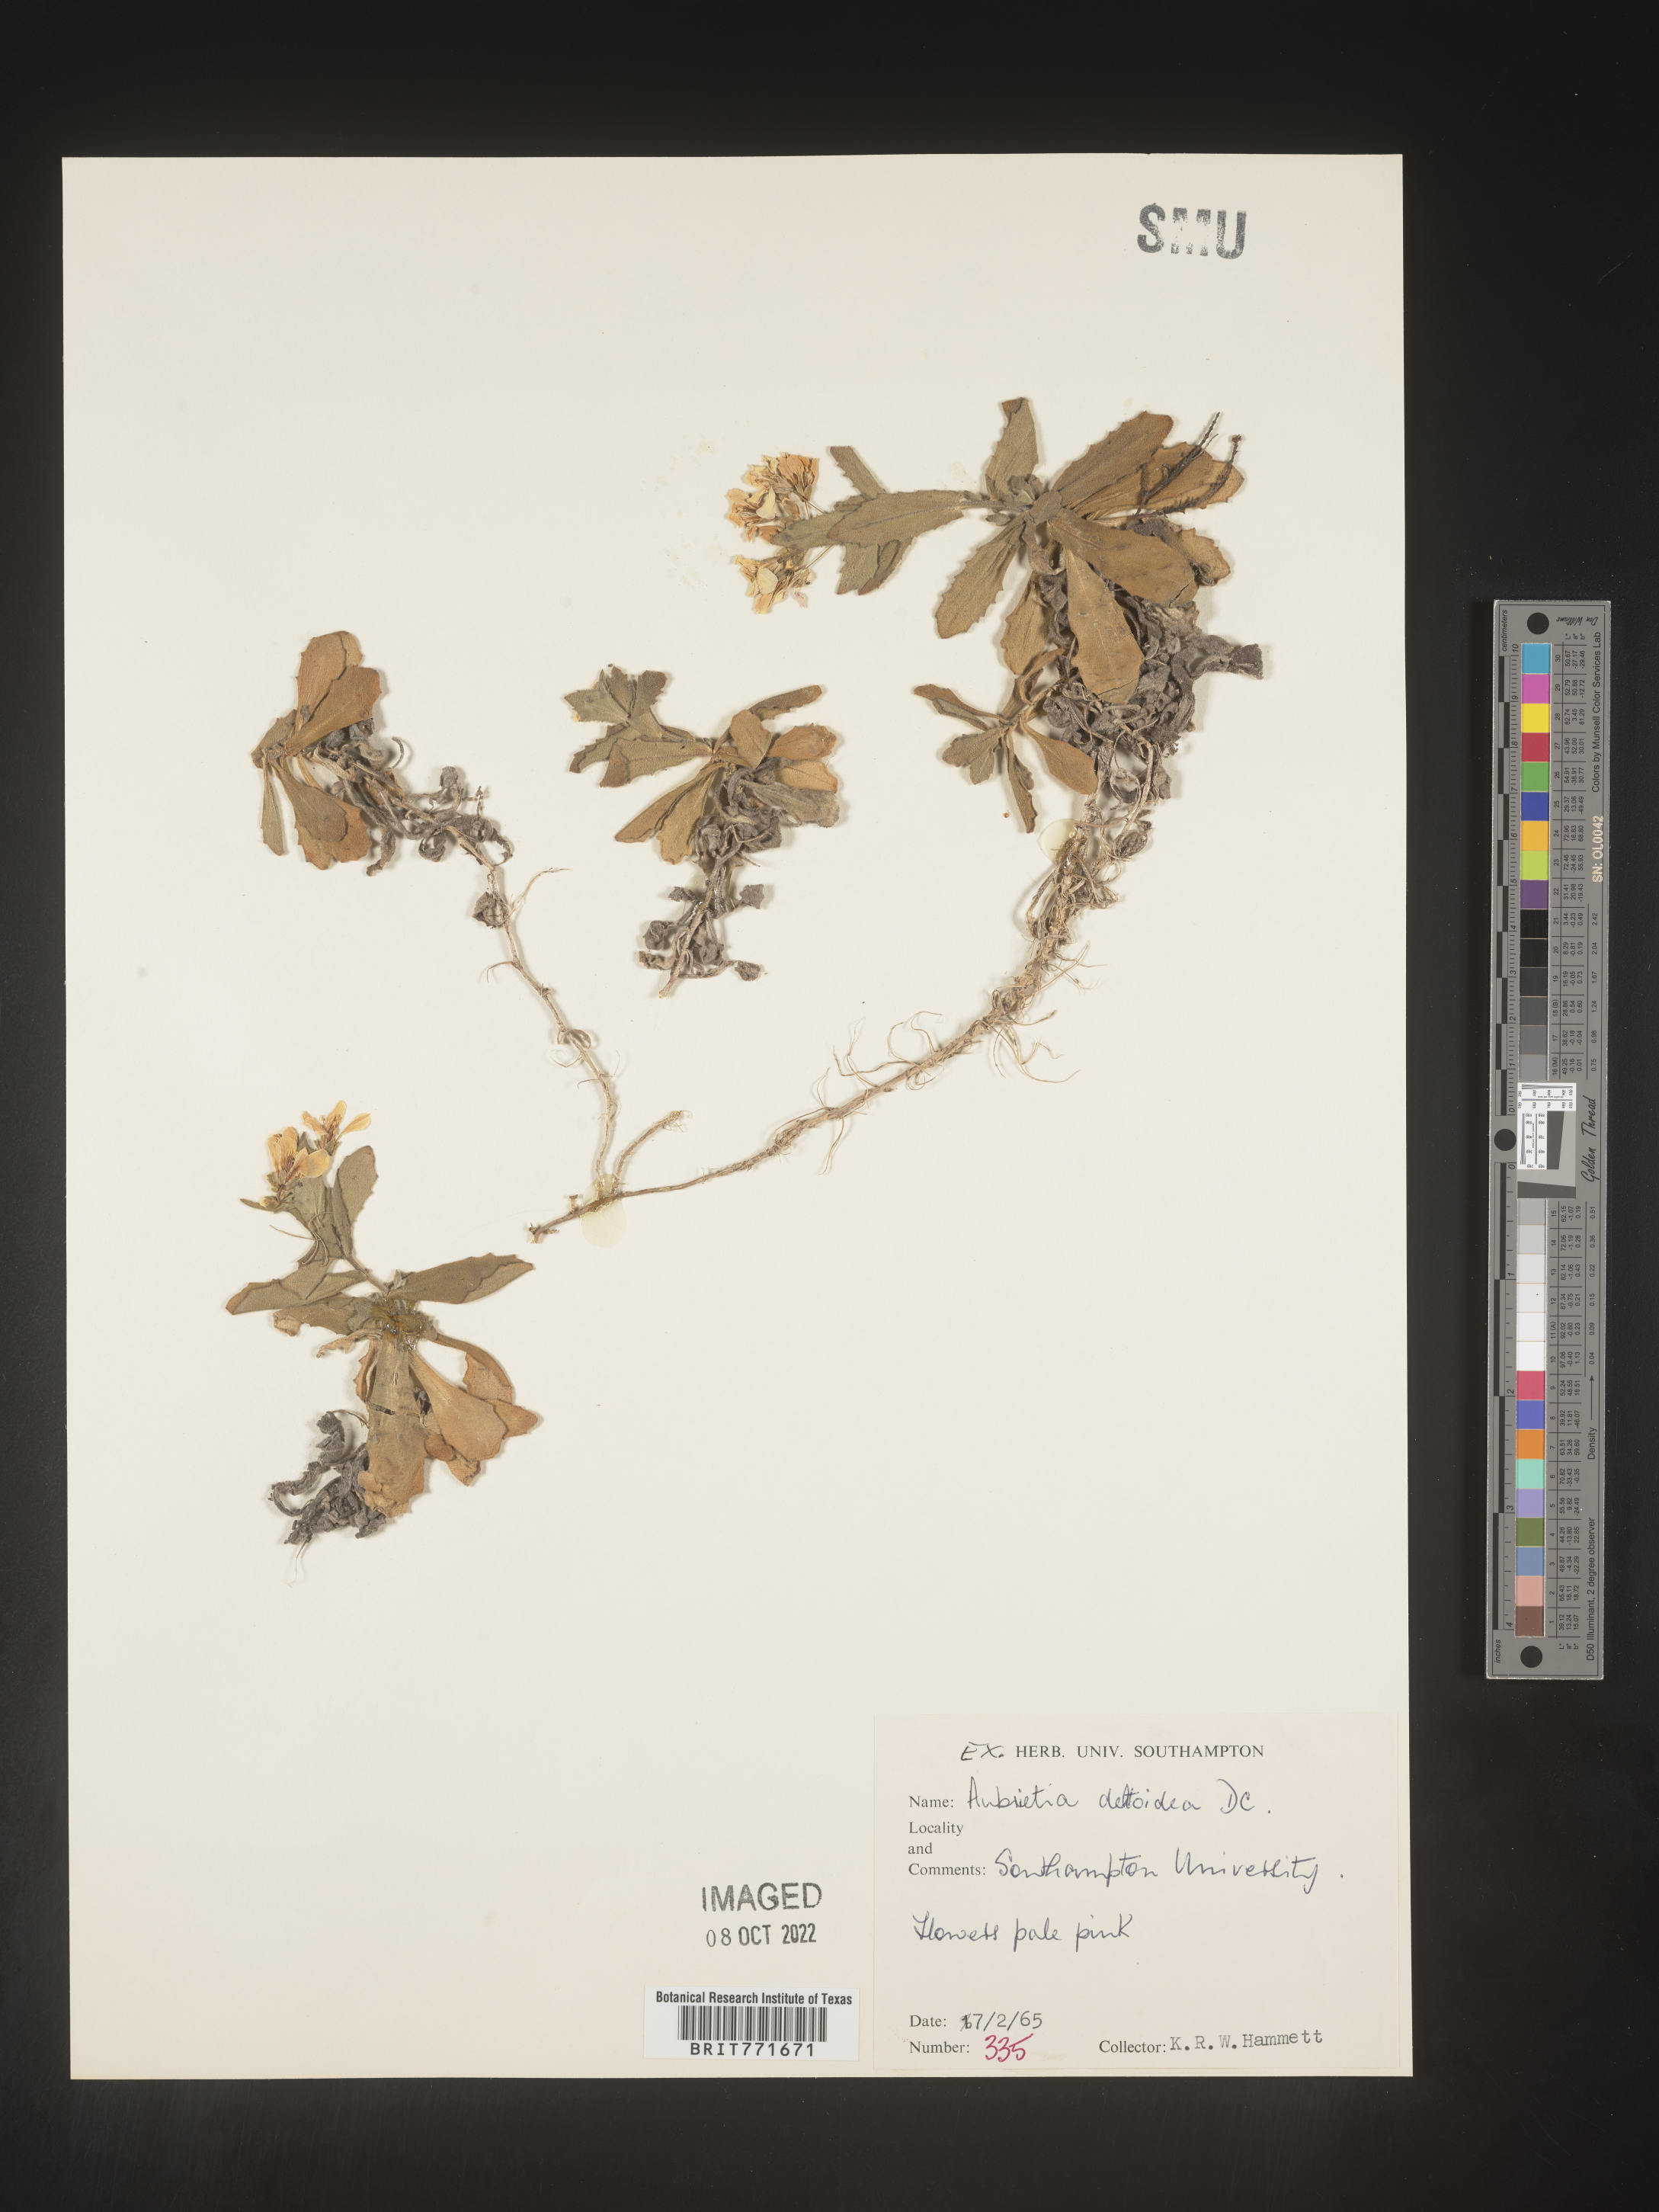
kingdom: Plantae
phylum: Tracheophyta
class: Magnoliopsida
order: Brassicales
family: Brassicaceae
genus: Aubrieta
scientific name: Aubrieta
